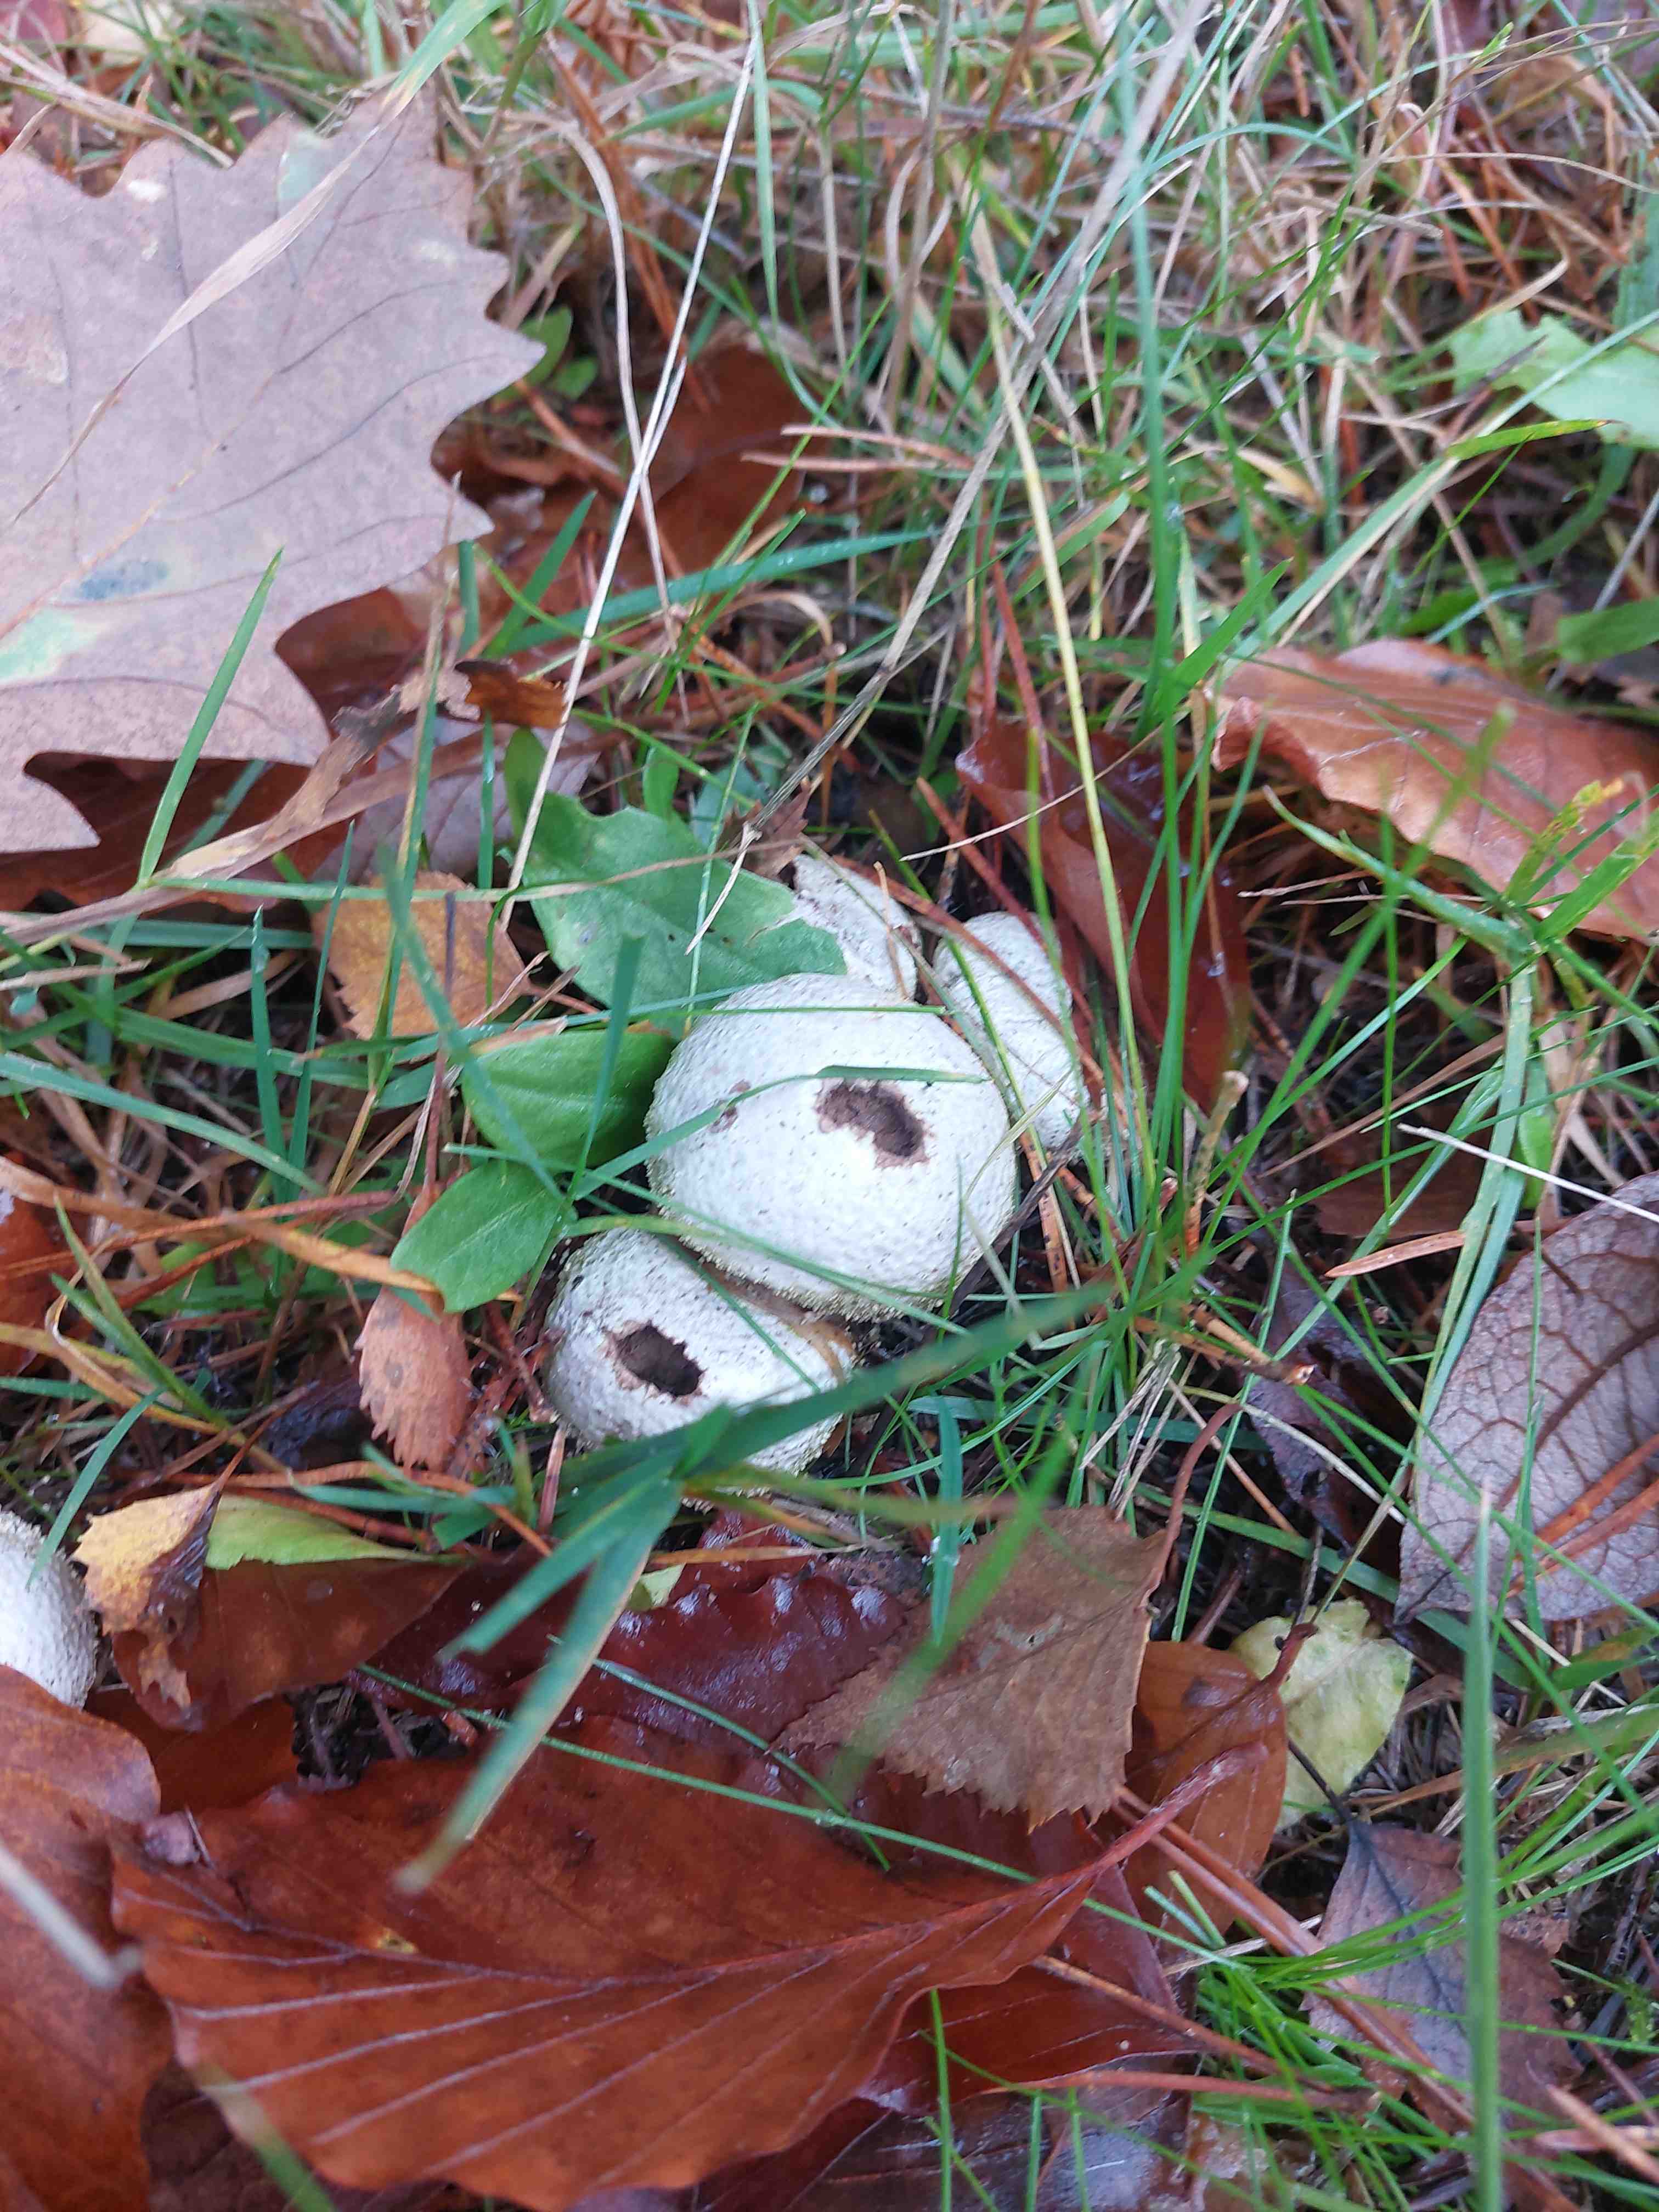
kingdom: Fungi
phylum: Basidiomycota
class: Agaricomycetes
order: Agaricales
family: Lycoperdaceae
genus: Lycoperdon
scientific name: Lycoperdon perlatum
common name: krystal-støvbold
